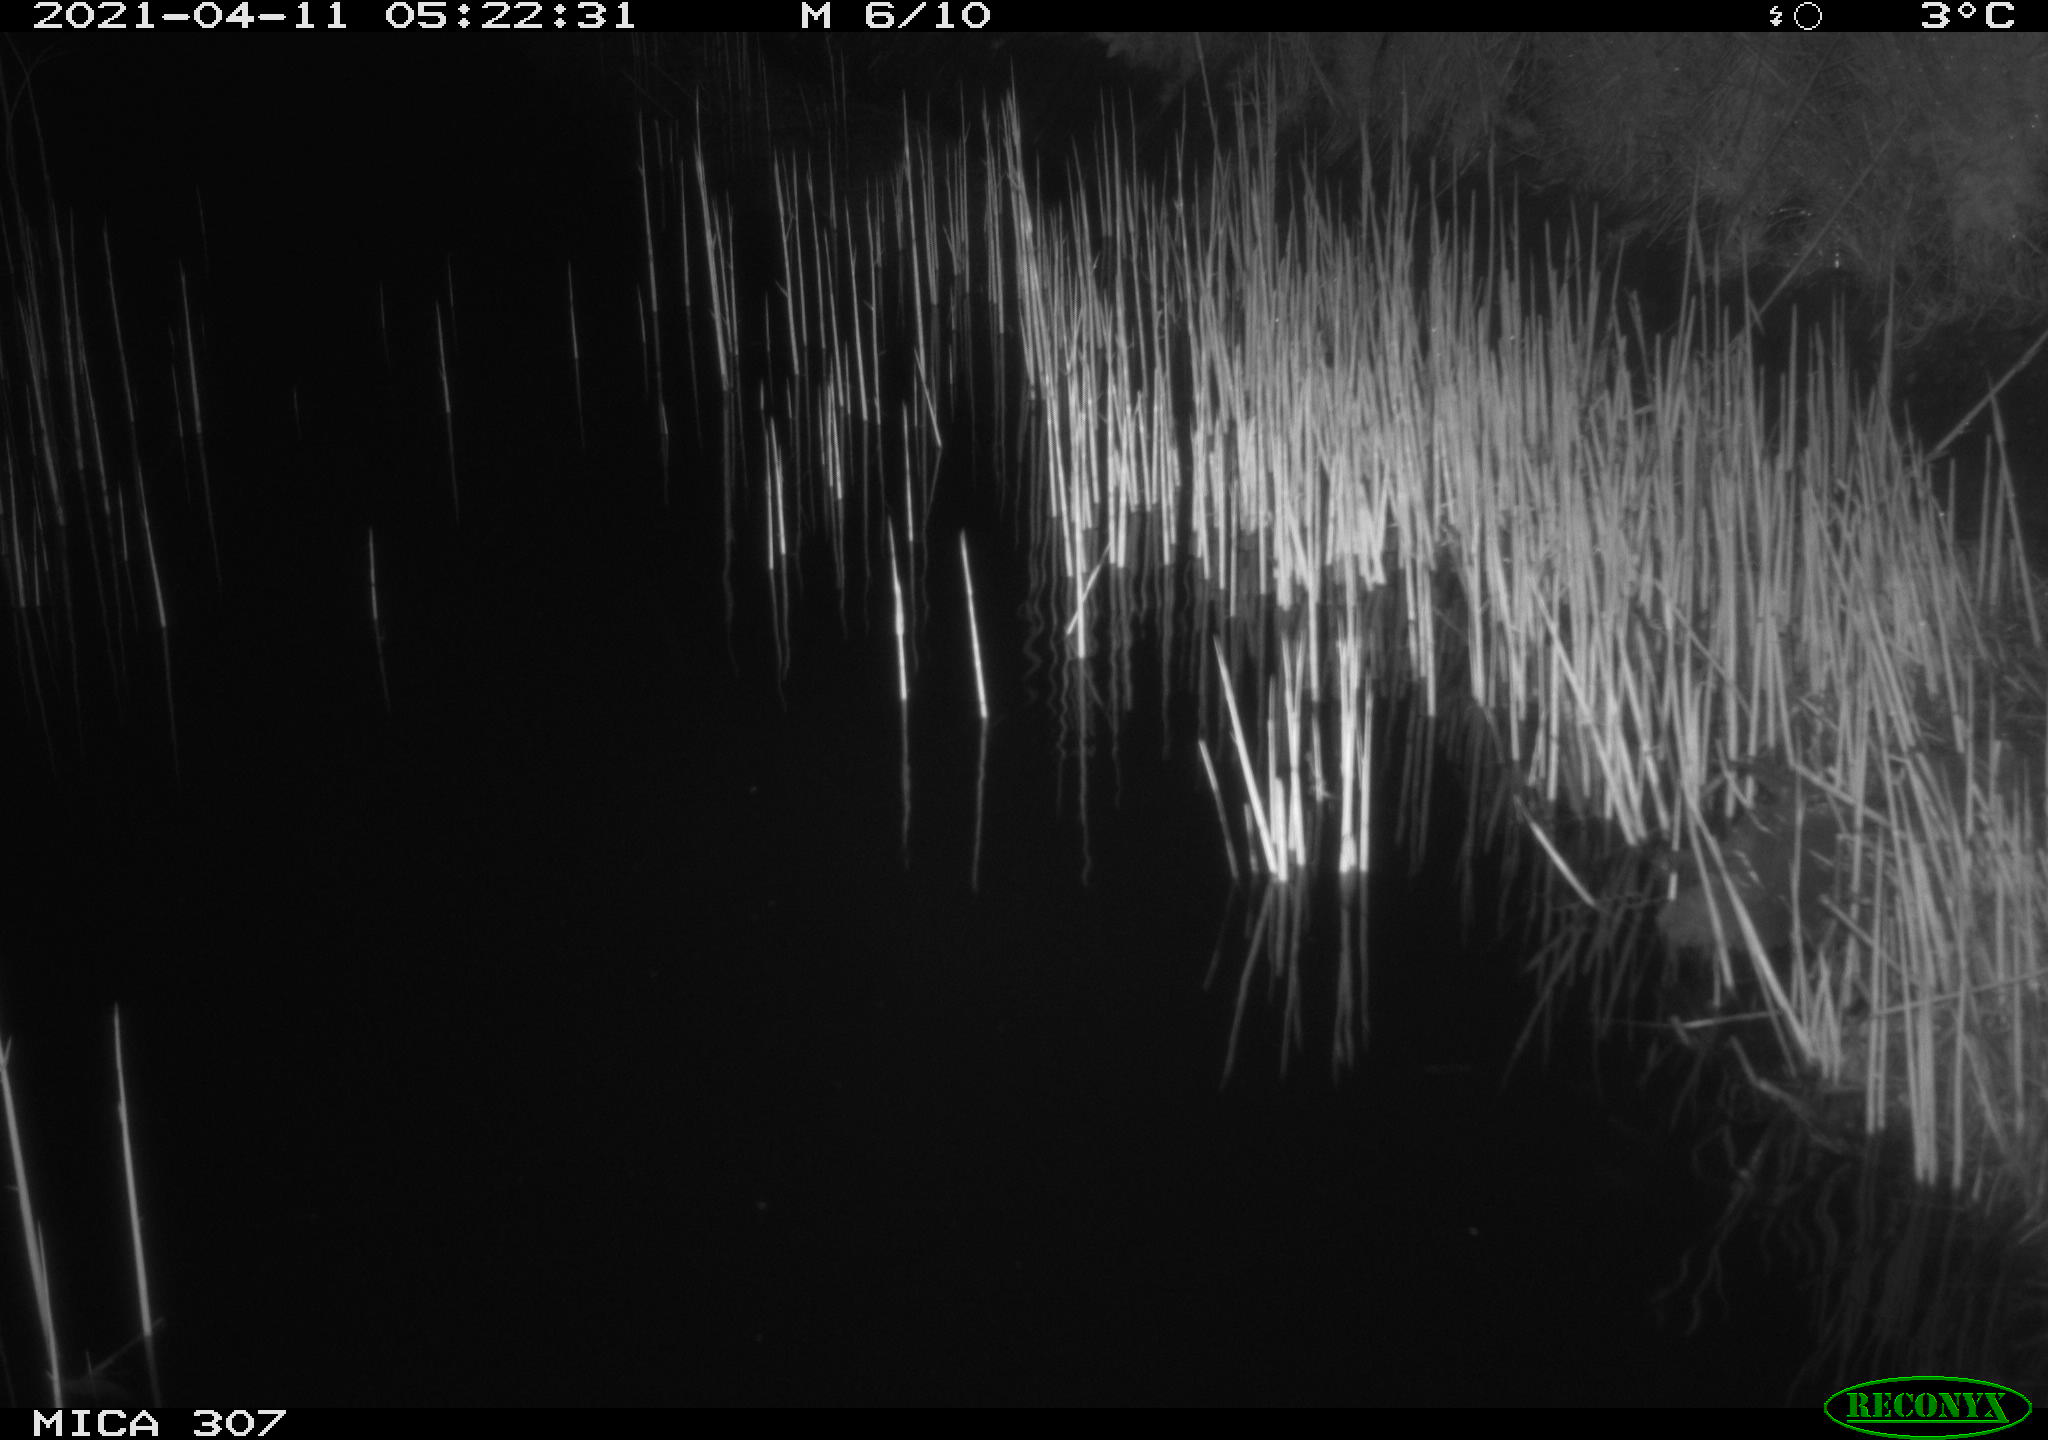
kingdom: Animalia
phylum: Chordata
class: Mammalia
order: Rodentia
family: Muridae
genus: Rattus
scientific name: Rattus norvegicus
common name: Brown rat
